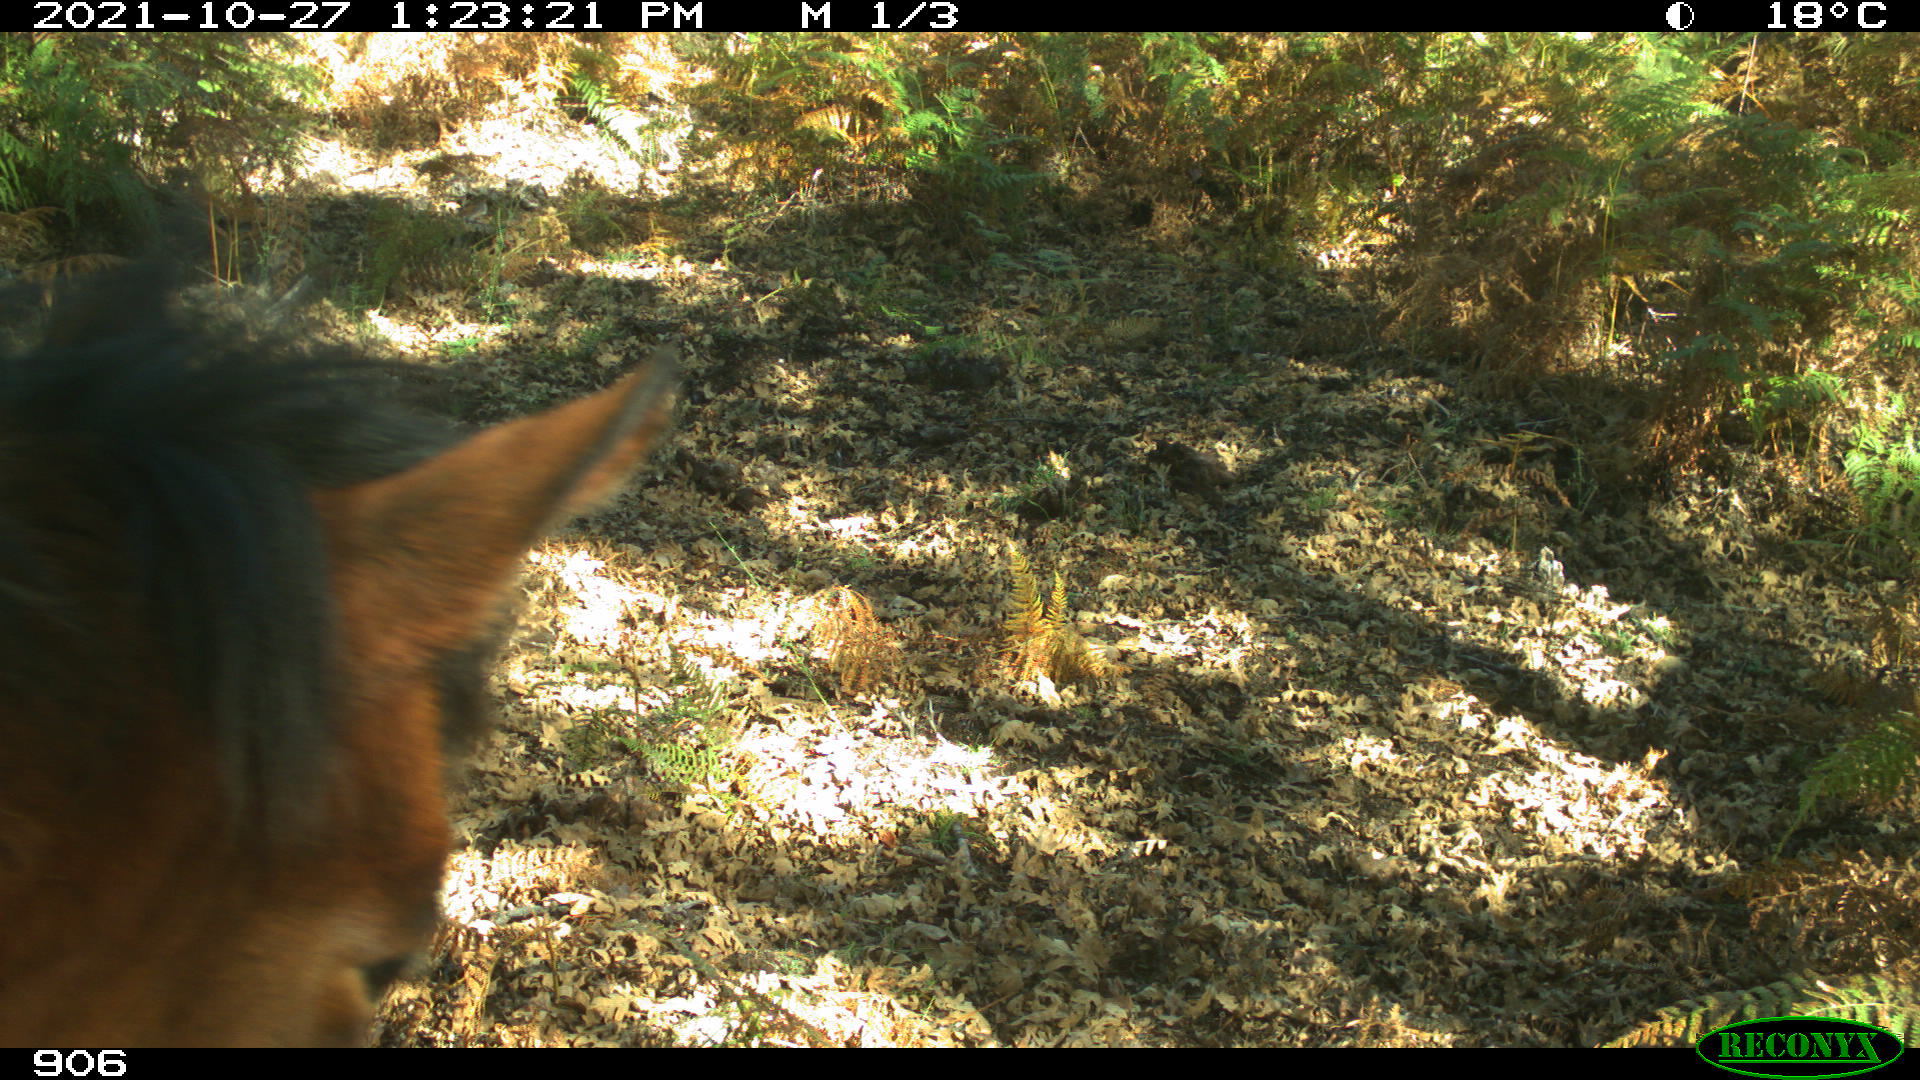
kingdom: Animalia
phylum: Chordata
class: Mammalia
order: Perissodactyla
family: Equidae
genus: Equus
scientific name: Equus caballus
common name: Horse
